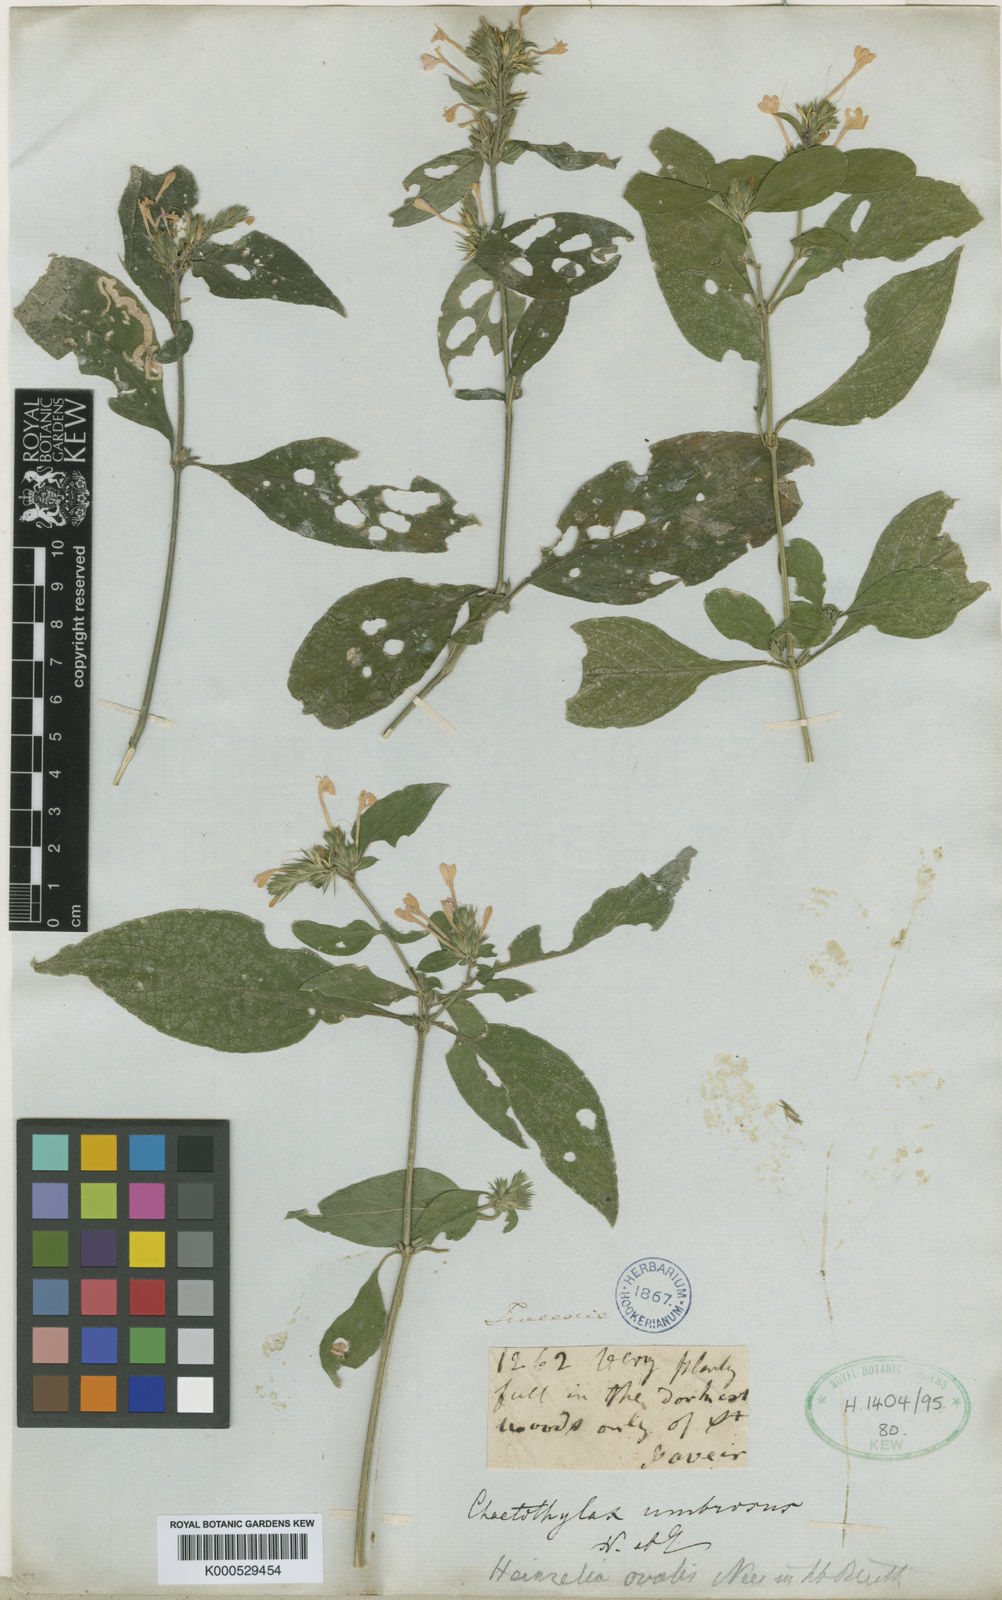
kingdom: Plantae
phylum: Tracheophyta
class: Magnoliopsida
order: Lamiales
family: Acanthaceae
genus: Justicia
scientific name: Justicia goudotii
